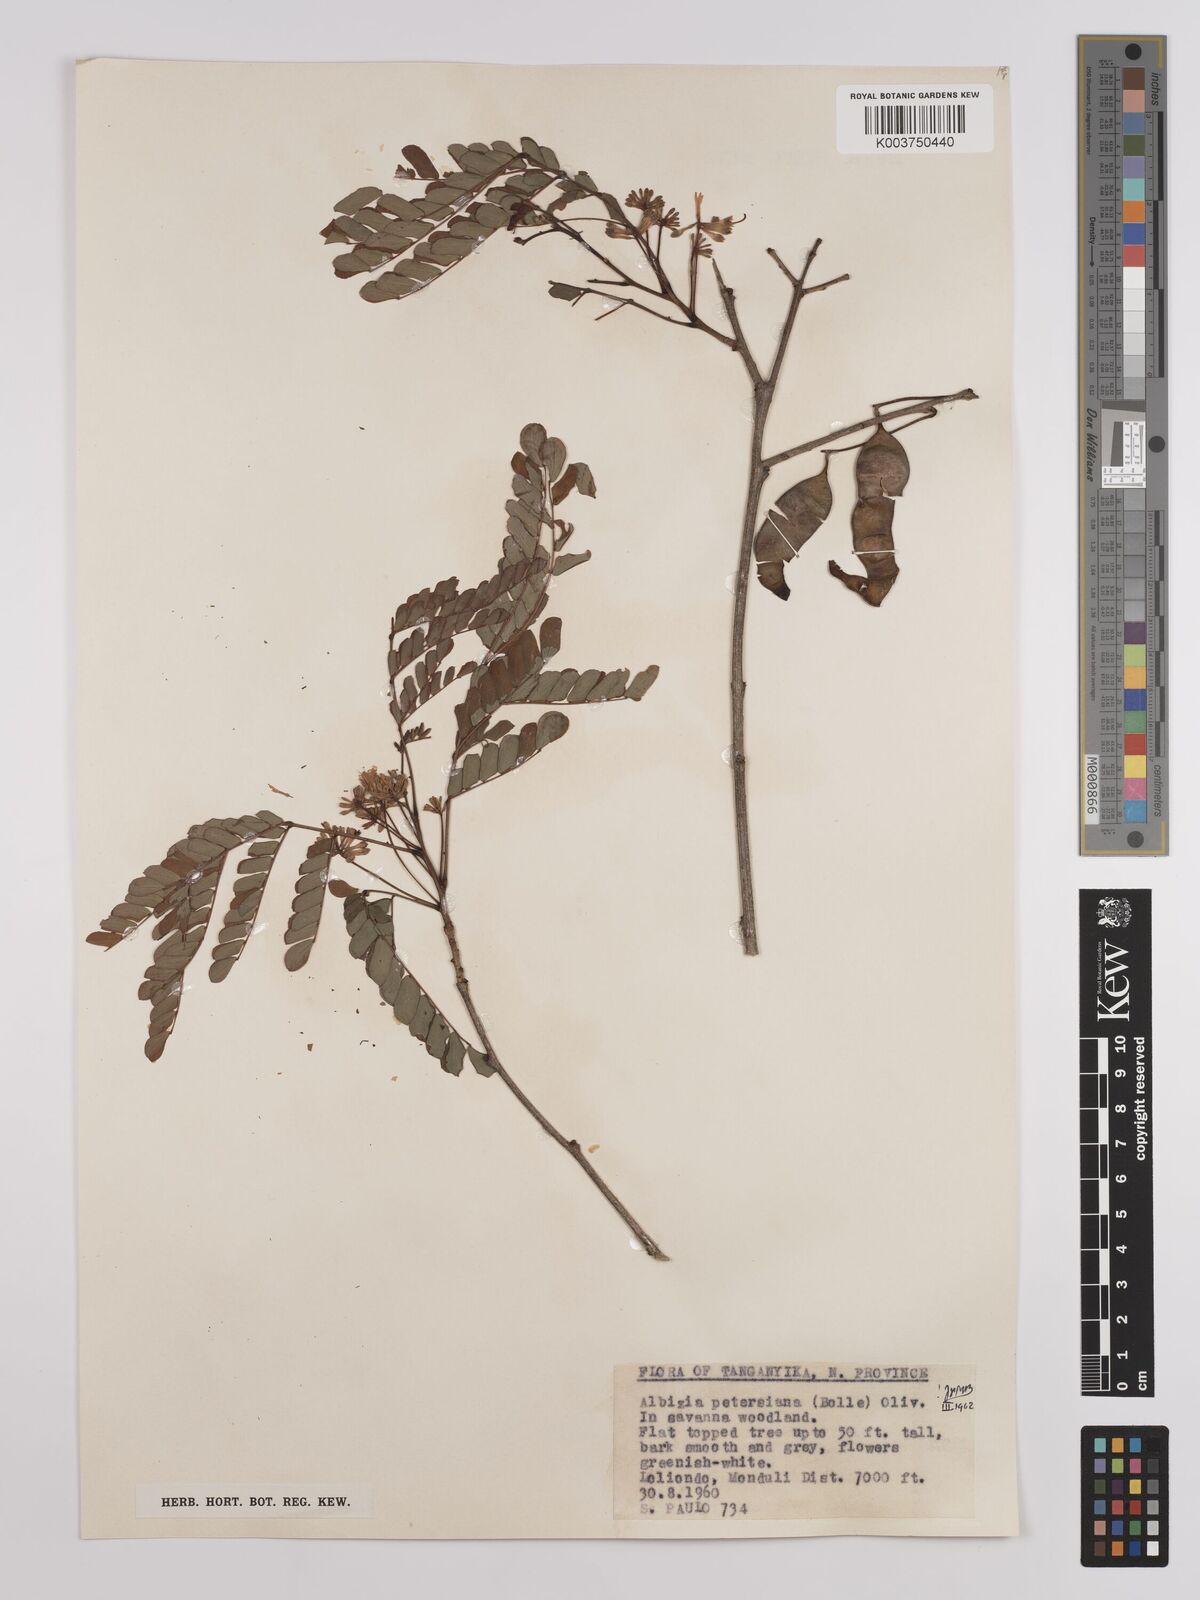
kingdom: Plantae
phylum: Tracheophyta
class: Magnoliopsida
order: Fabales
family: Fabaceae
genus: Albizia
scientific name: Albizia petersiana
